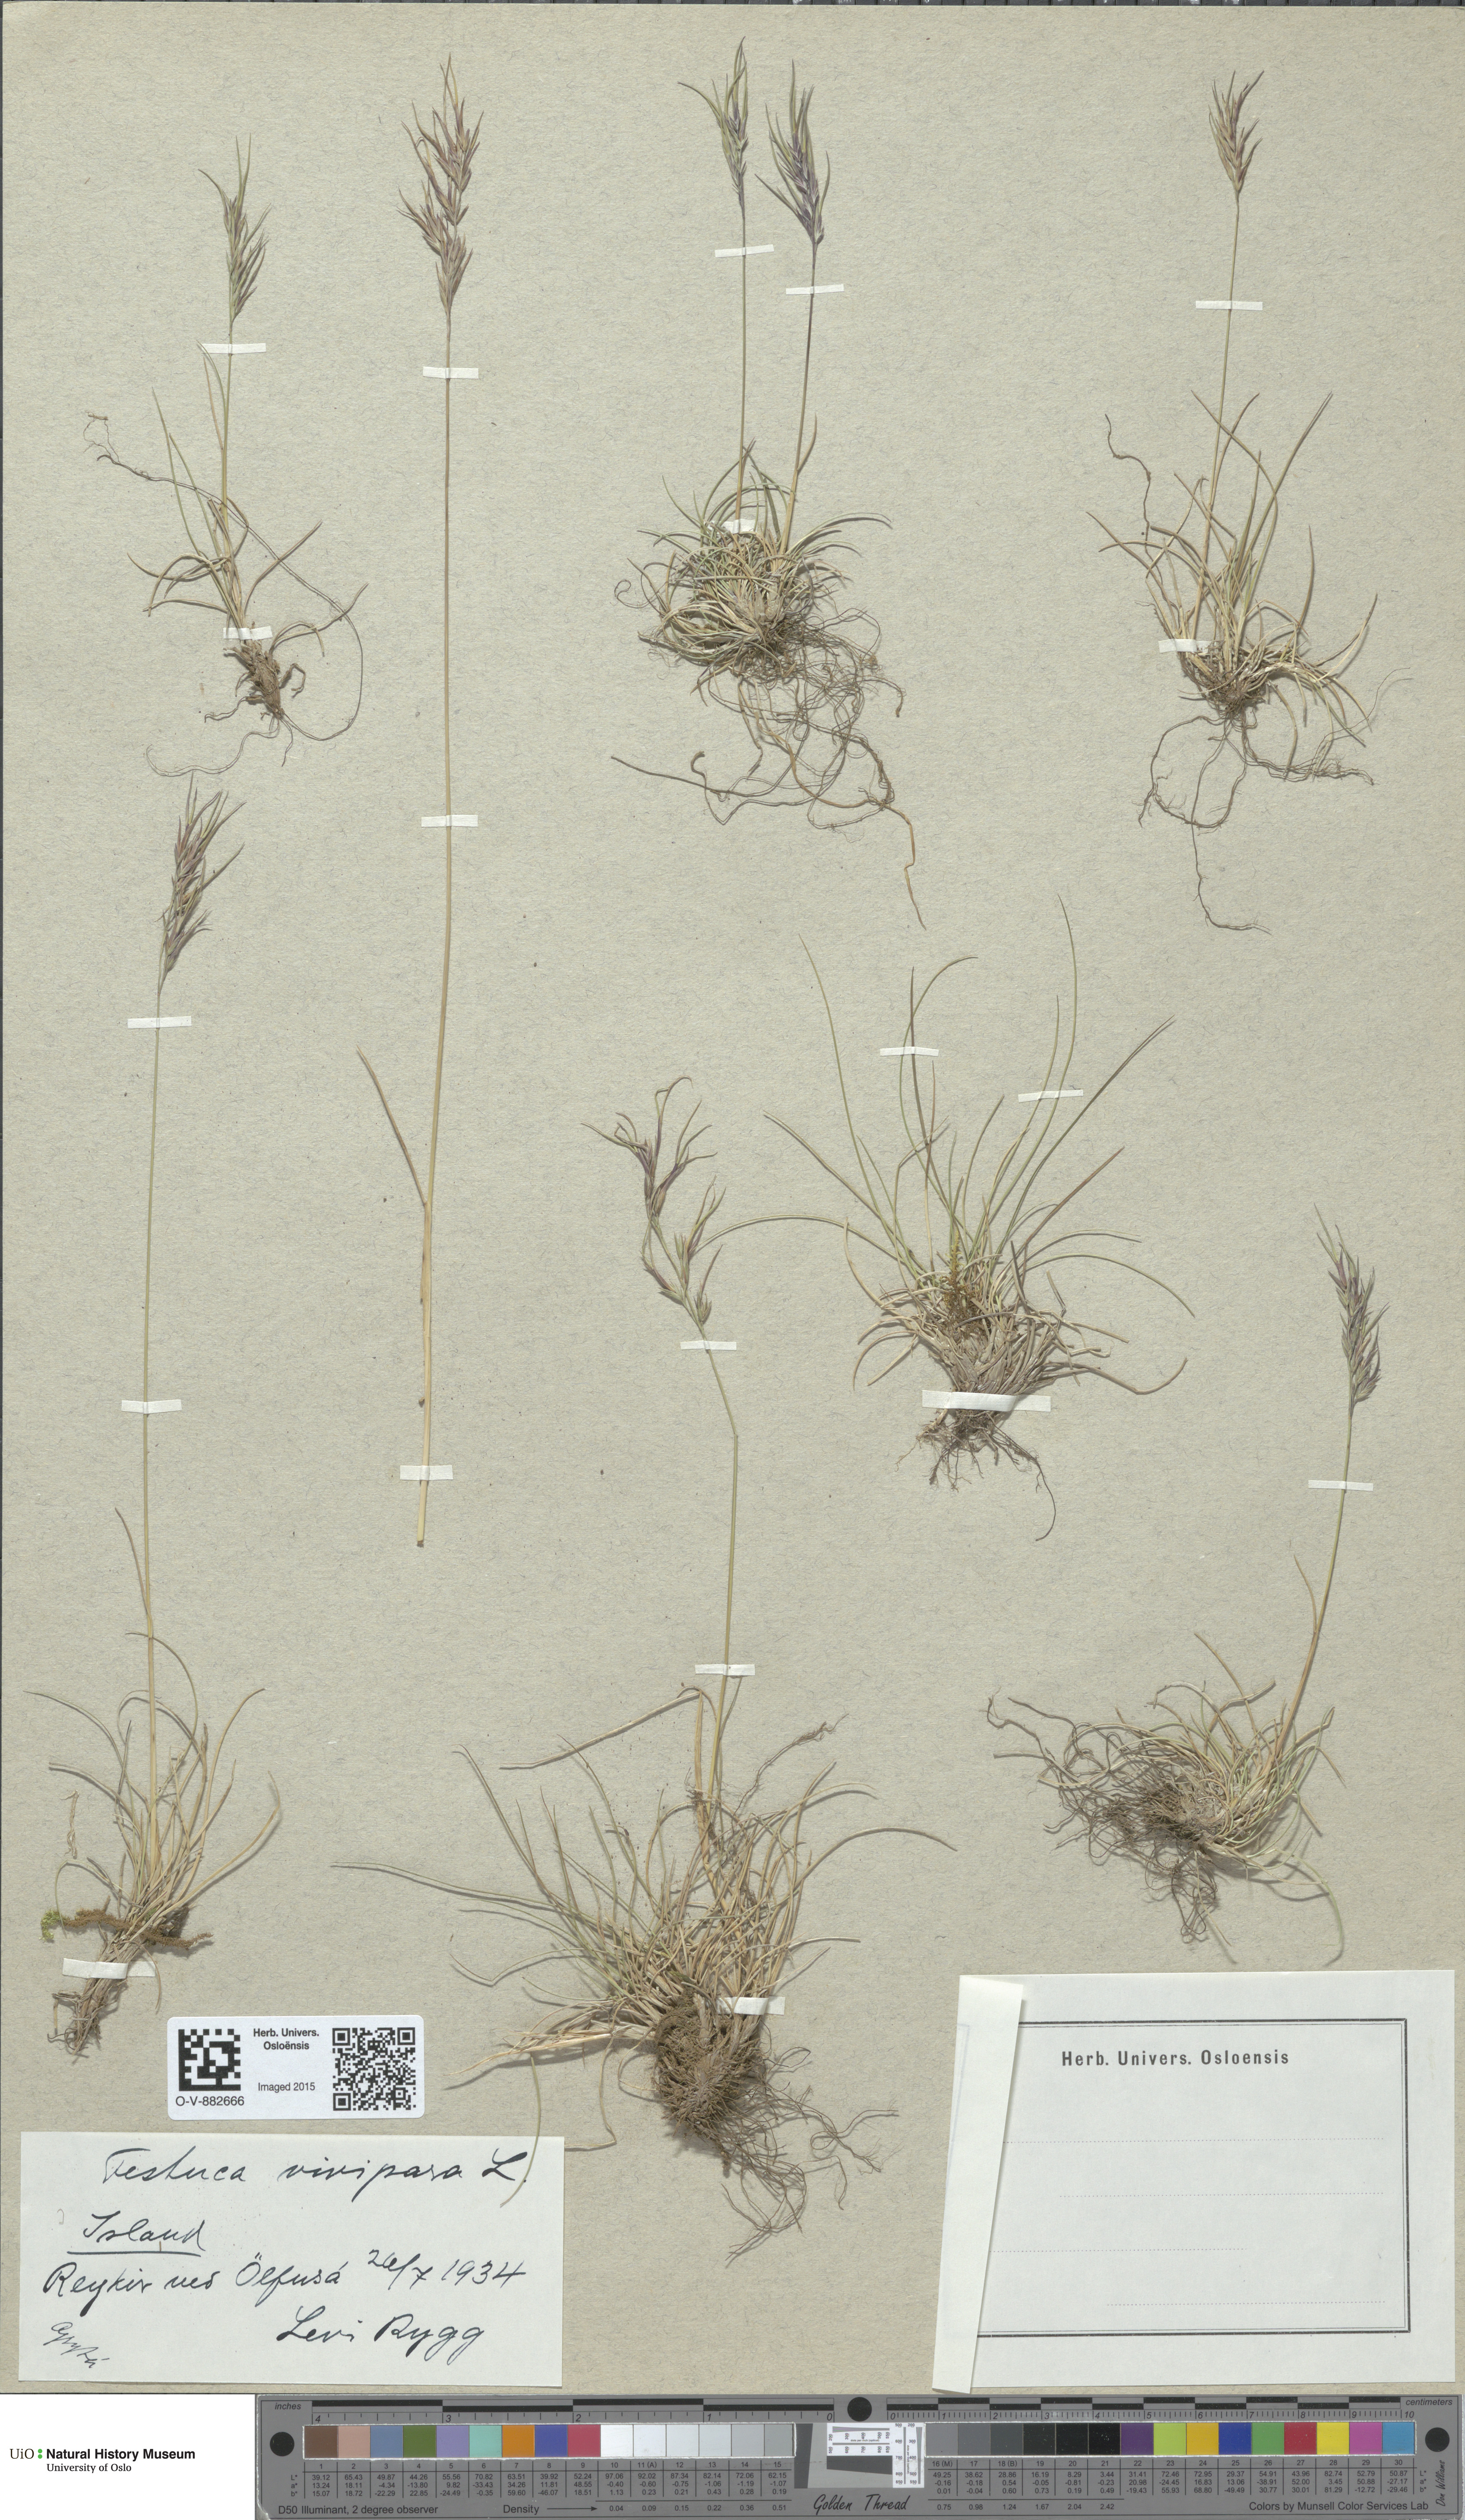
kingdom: Plantae
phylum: Tracheophyta
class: Liliopsida
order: Poales
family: Poaceae
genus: Festuca
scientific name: Festuca vivipara
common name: Viviparous sheep's-fescue
